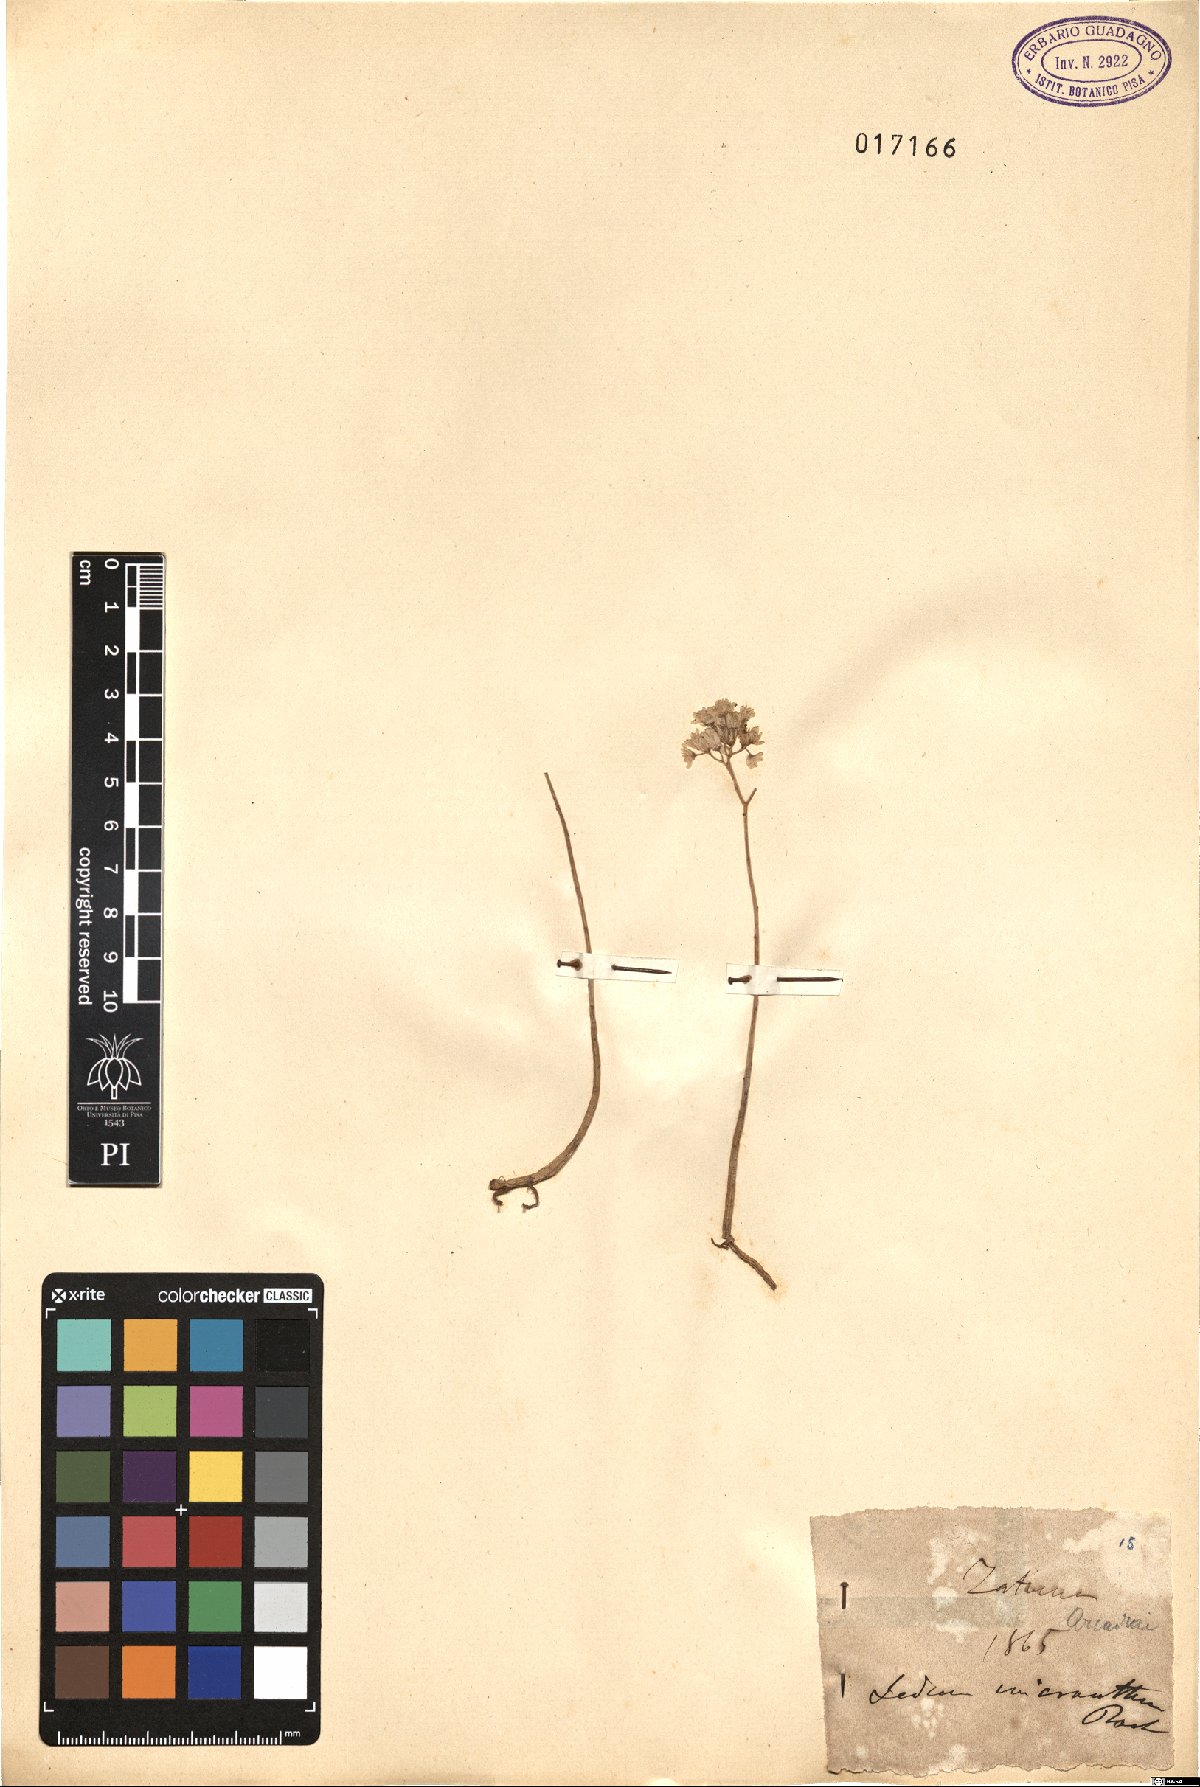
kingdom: Plantae
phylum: Tracheophyta
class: Magnoliopsida
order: Saxifragales
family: Crassulaceae
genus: Sedum
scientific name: Sedum album
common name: White stonecrop
